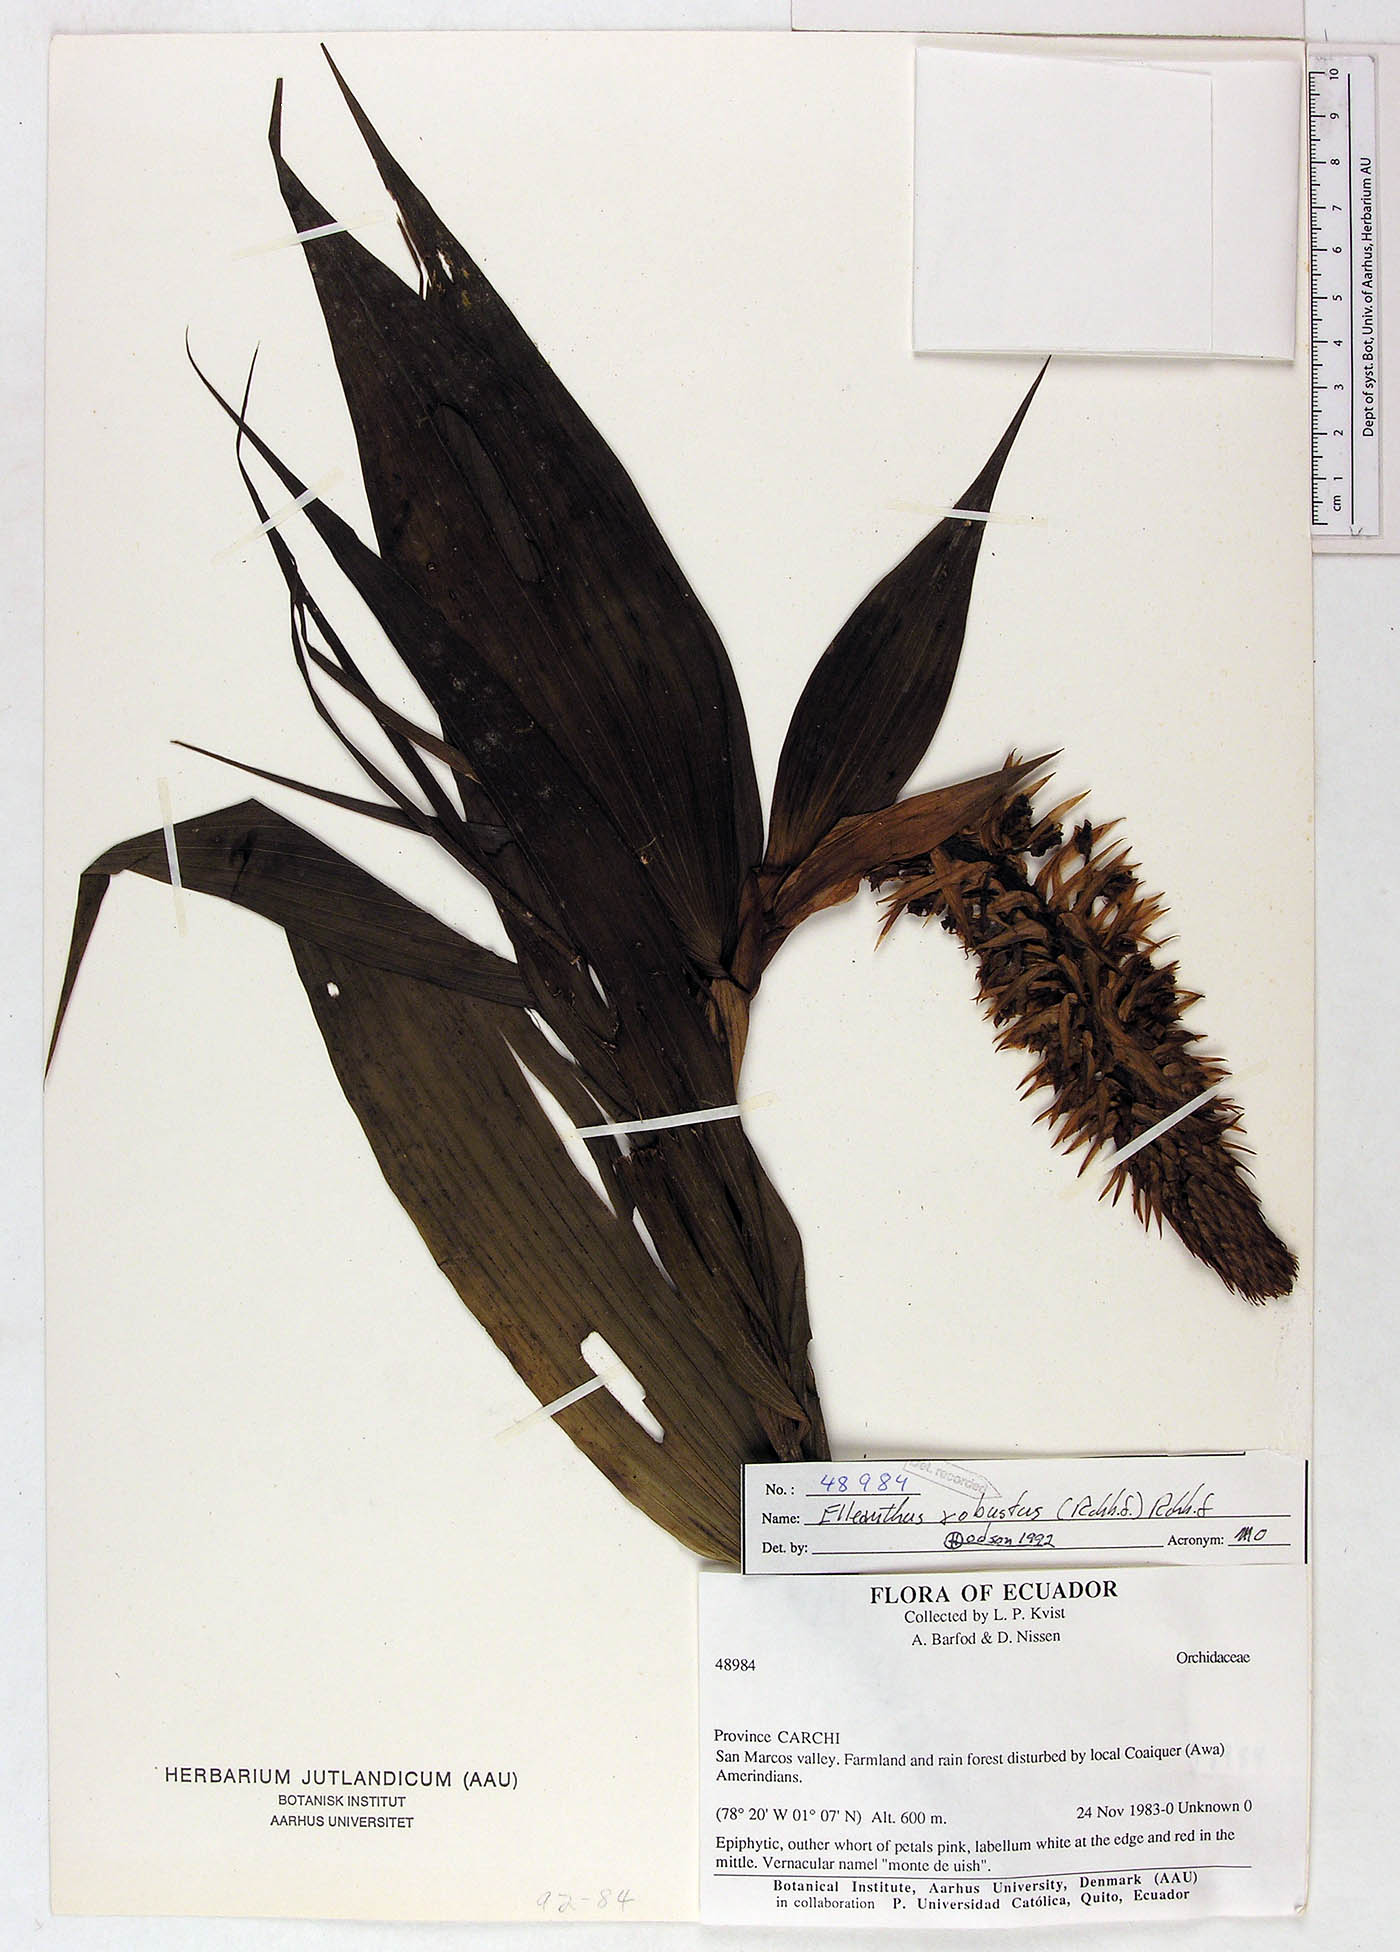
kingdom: Plantae
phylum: Tracheophyta
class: Liliopsida
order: Asparagales
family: Orchidaceae
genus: Elleanthus
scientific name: Elleanthus robustus
